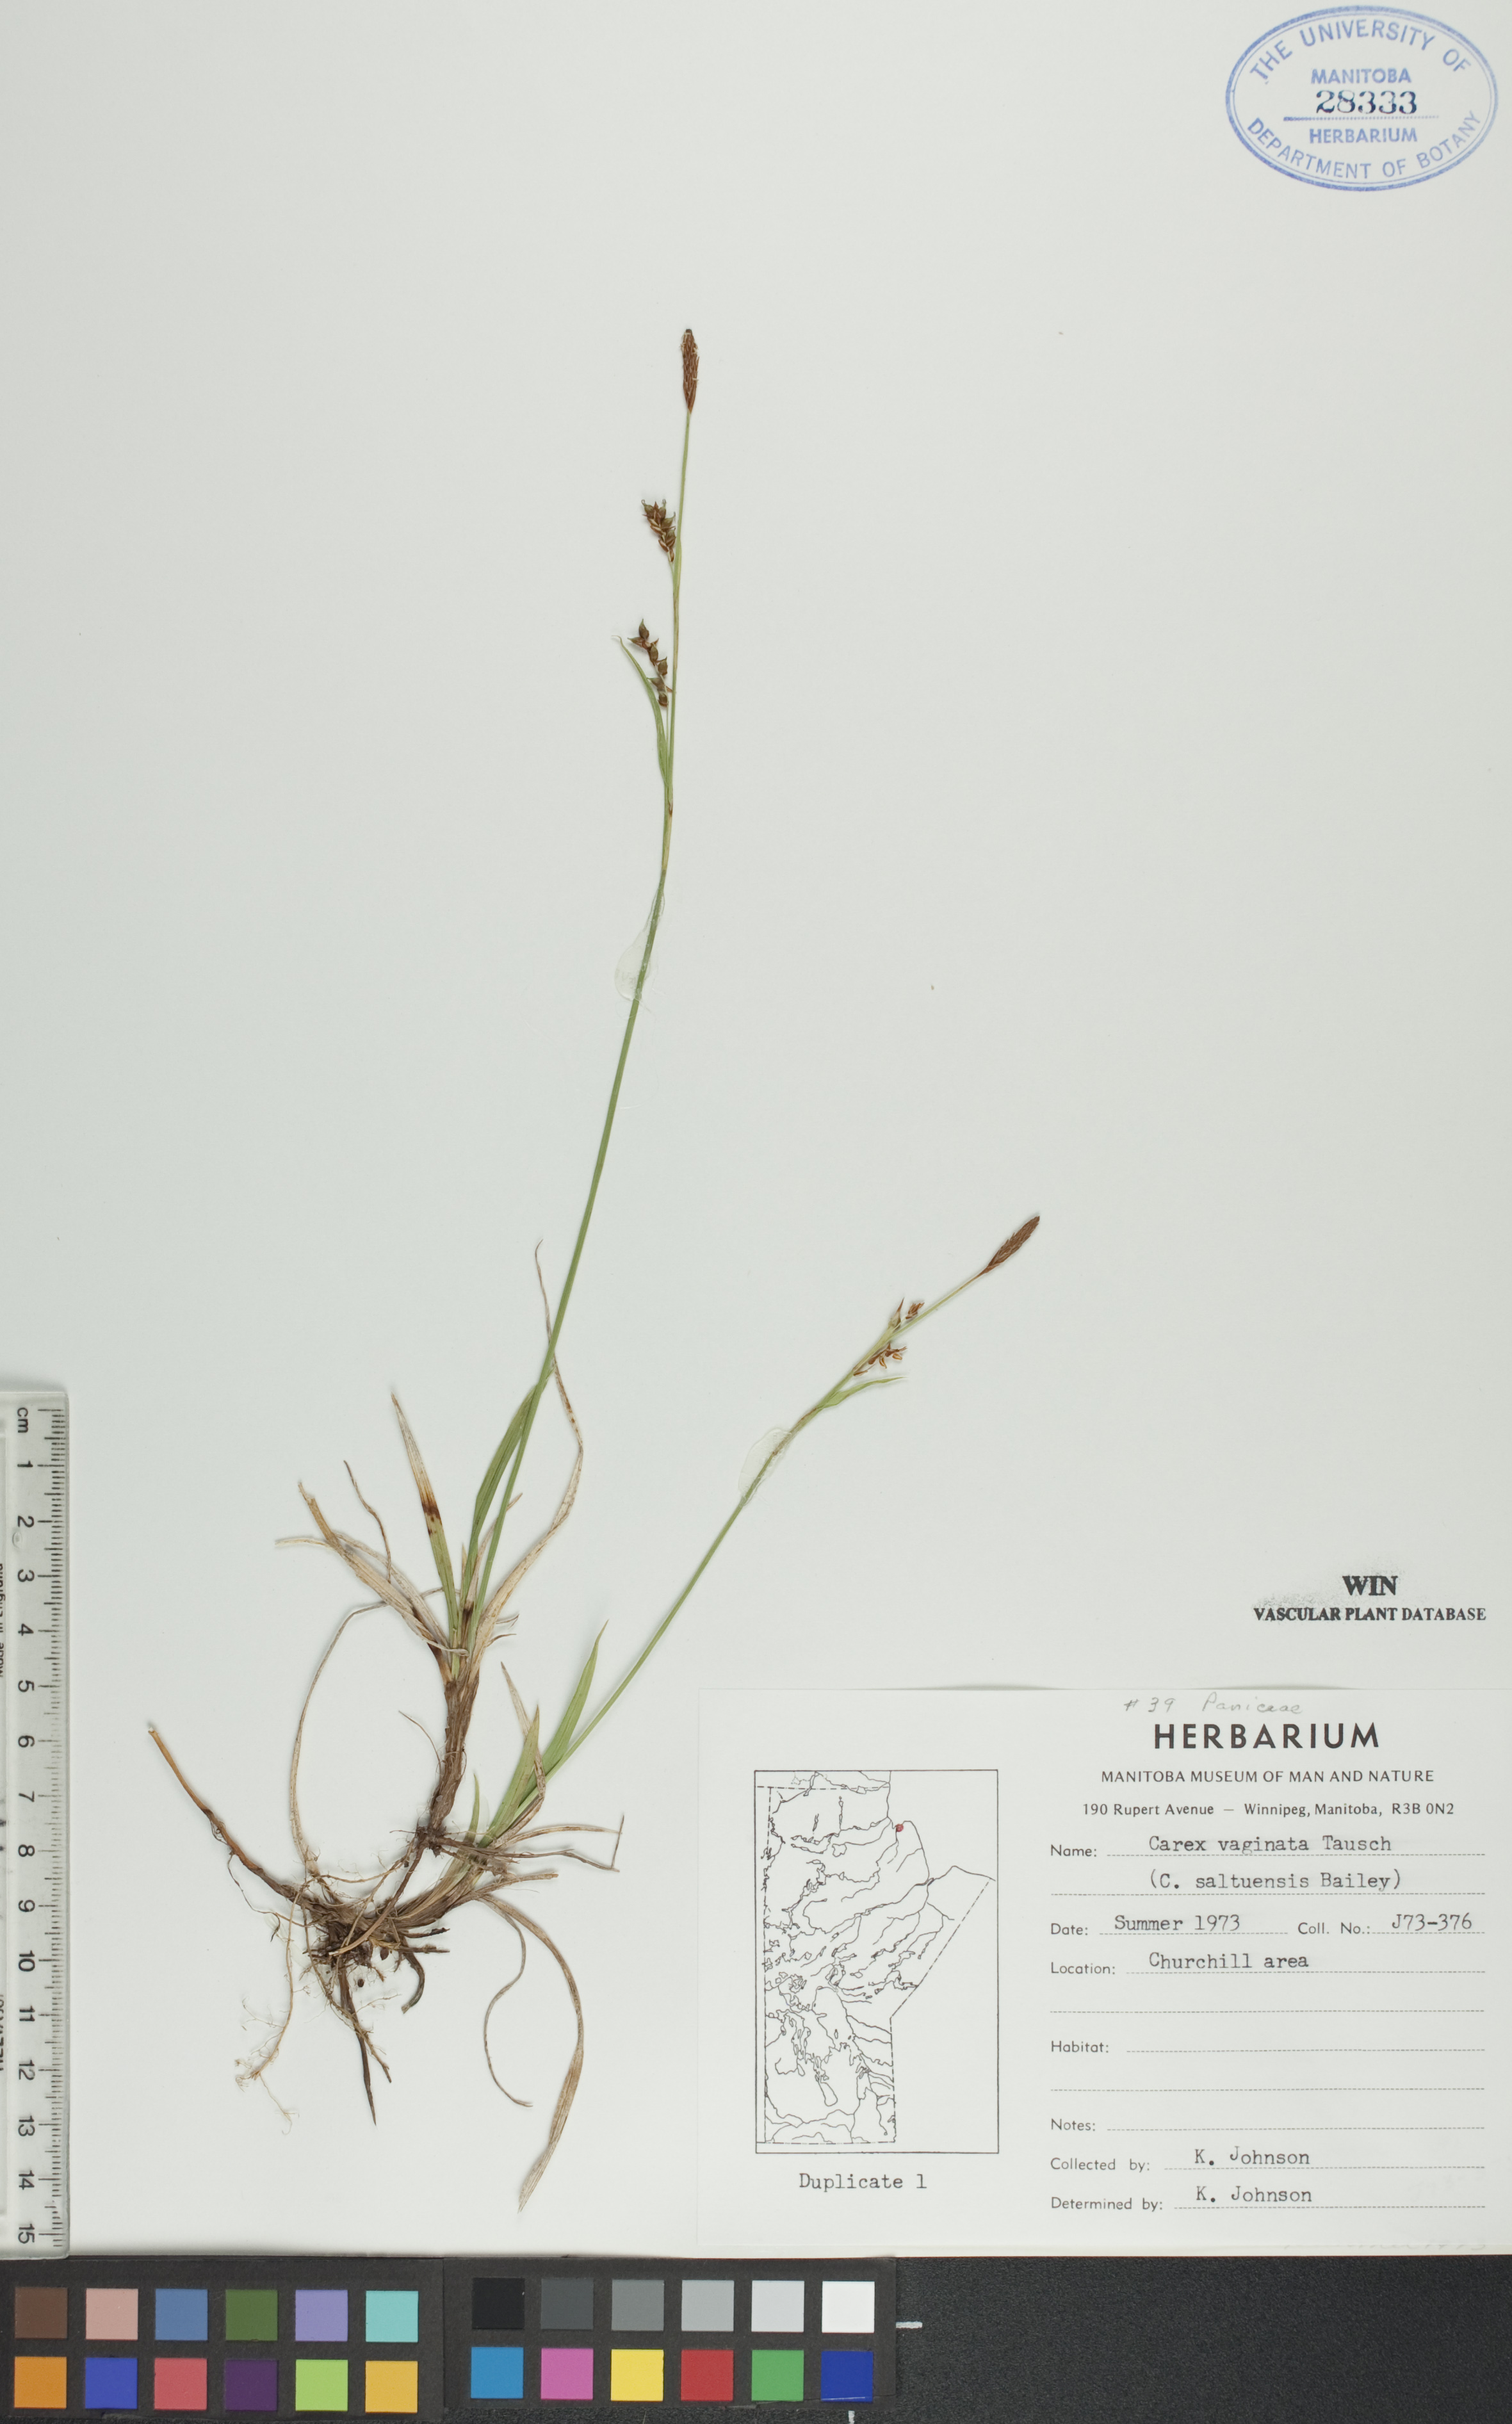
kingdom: Plantae
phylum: Tracheophyta
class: Liliopsida
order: Poales
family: Cyperaceae
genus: Carex
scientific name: Carex vaginata
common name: Sheathed sedge
